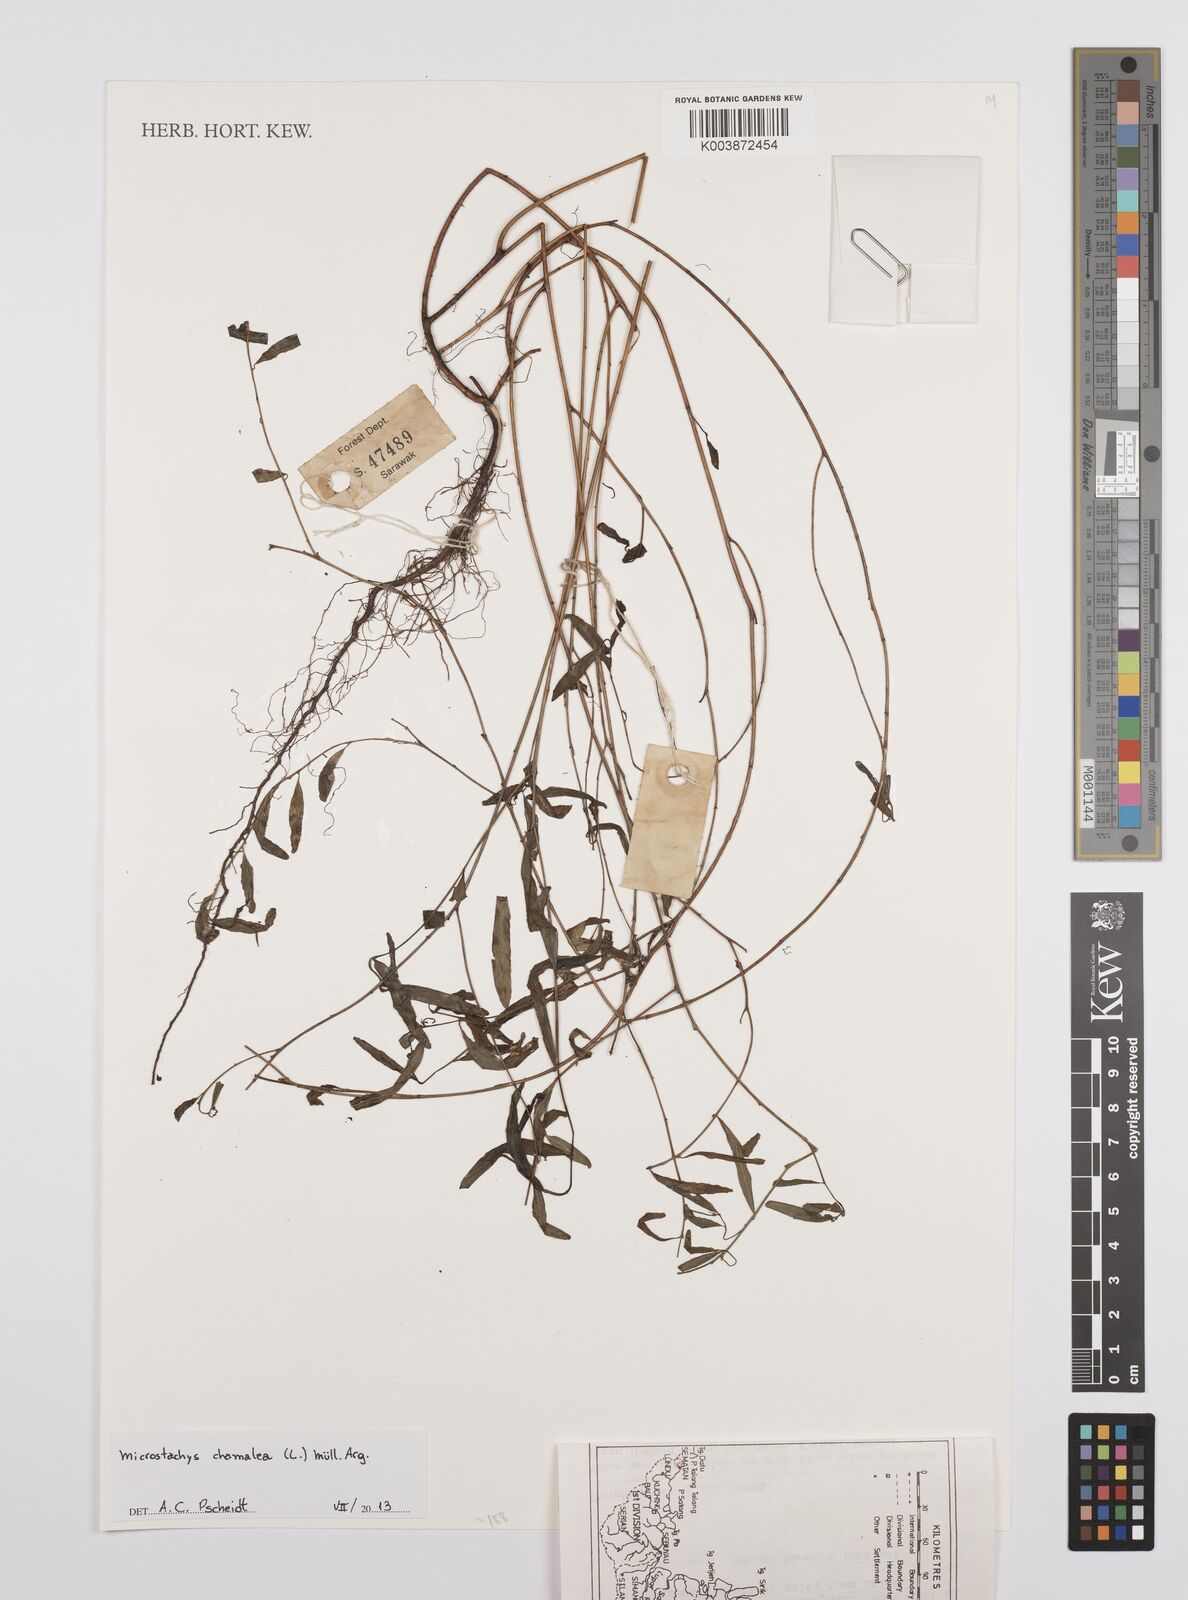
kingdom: Plantae
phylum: Tracheophyta
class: Magnoliopsida
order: Malpighiales
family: Euphorbiaceae
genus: Microstachys
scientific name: Microstachys
